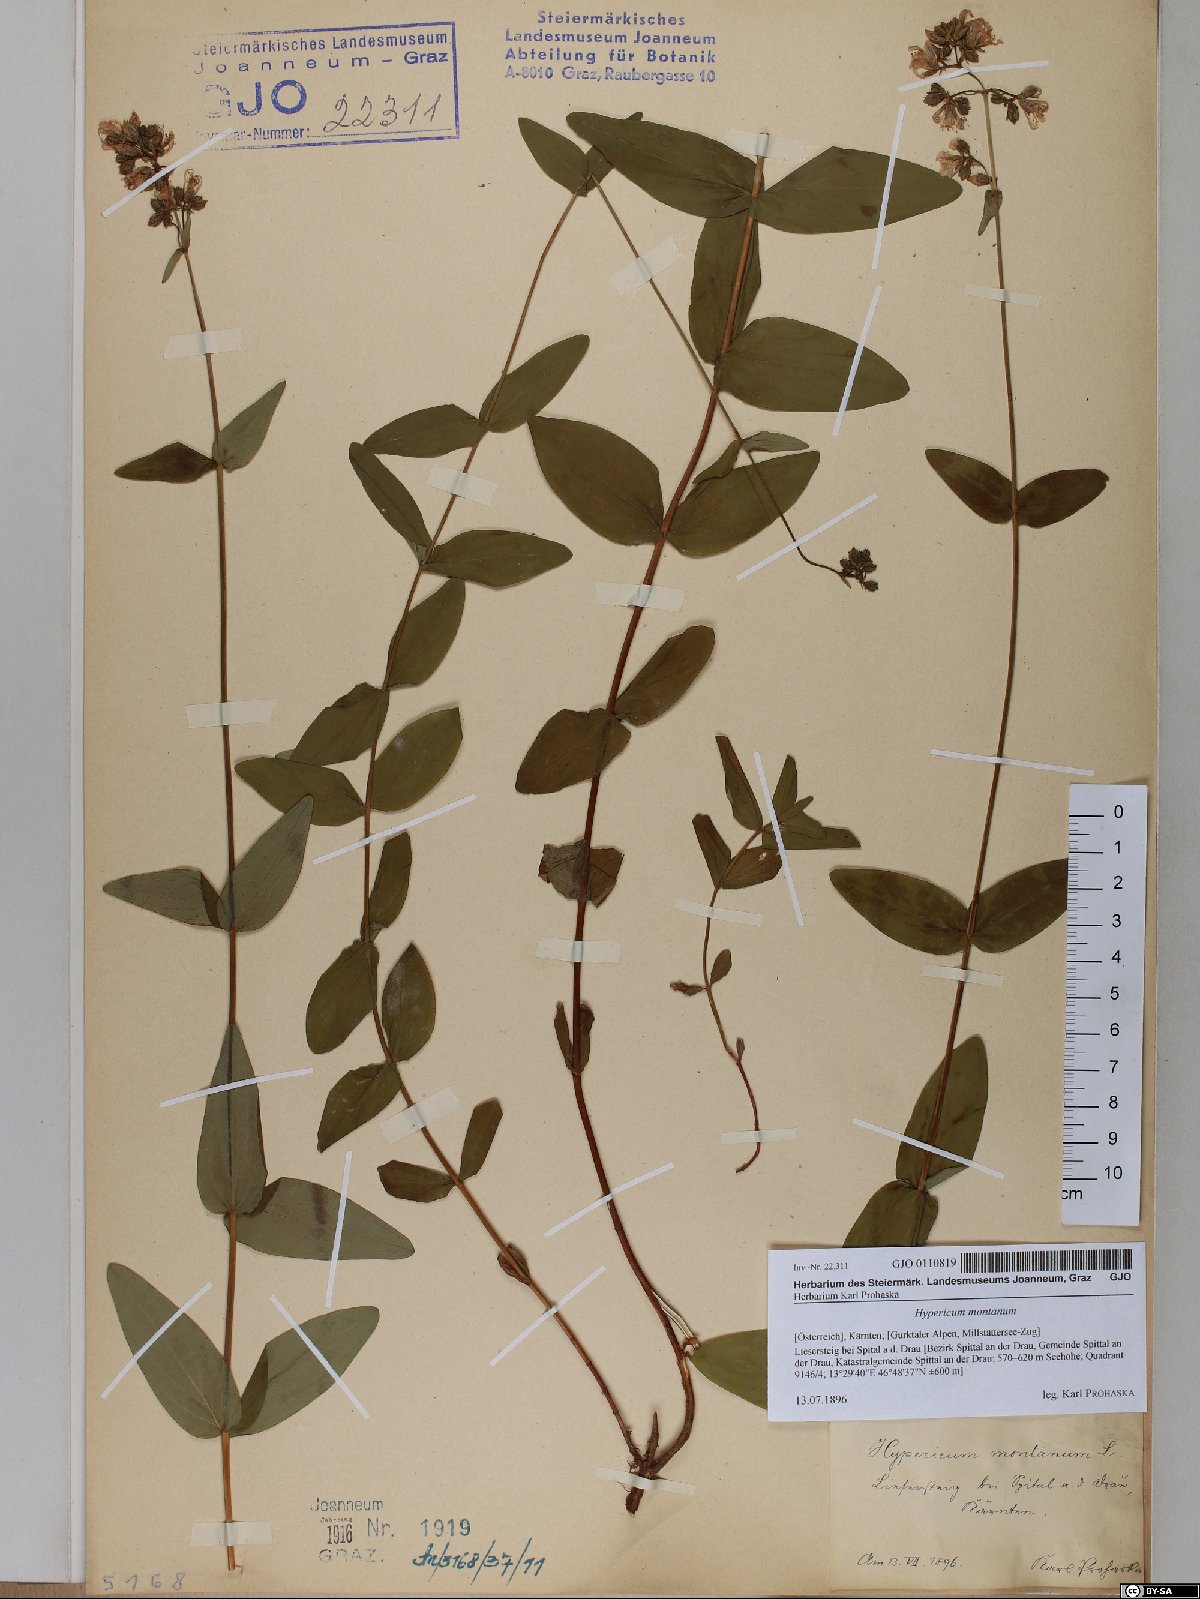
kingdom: Plantae
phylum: Tracheophyta
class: Magnoliopsida
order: Malpighiales
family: Hypericaceae
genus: Hypericum
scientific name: Hypericum montanum
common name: Pale st. john's-wort
